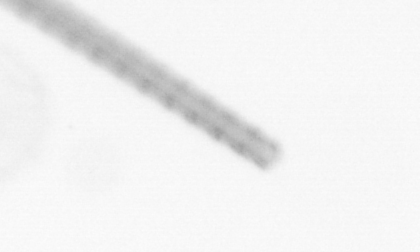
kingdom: Chromista
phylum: Ochrophyta
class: Bacillariophyceae
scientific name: Bacillariophyceae
